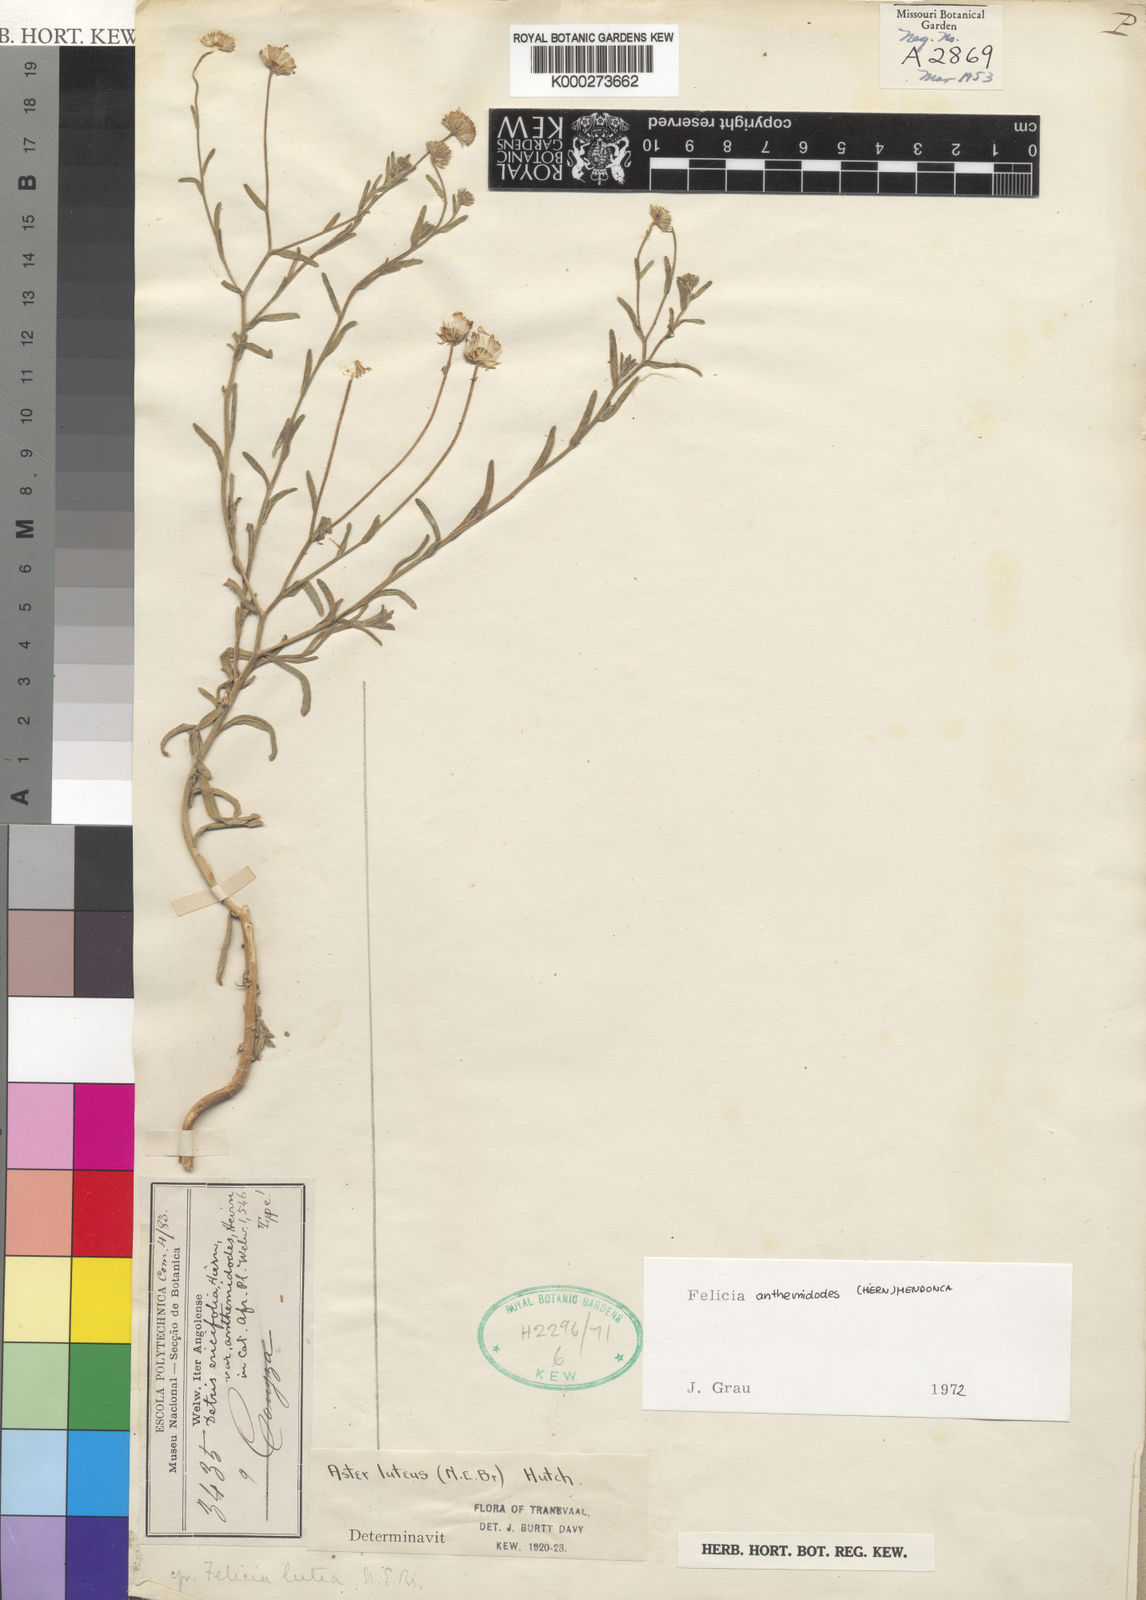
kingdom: Plantae
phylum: Tracheophyta
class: Magnoliopsida
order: Asterales
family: Asteraceae
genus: Felicia
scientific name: Felicia
